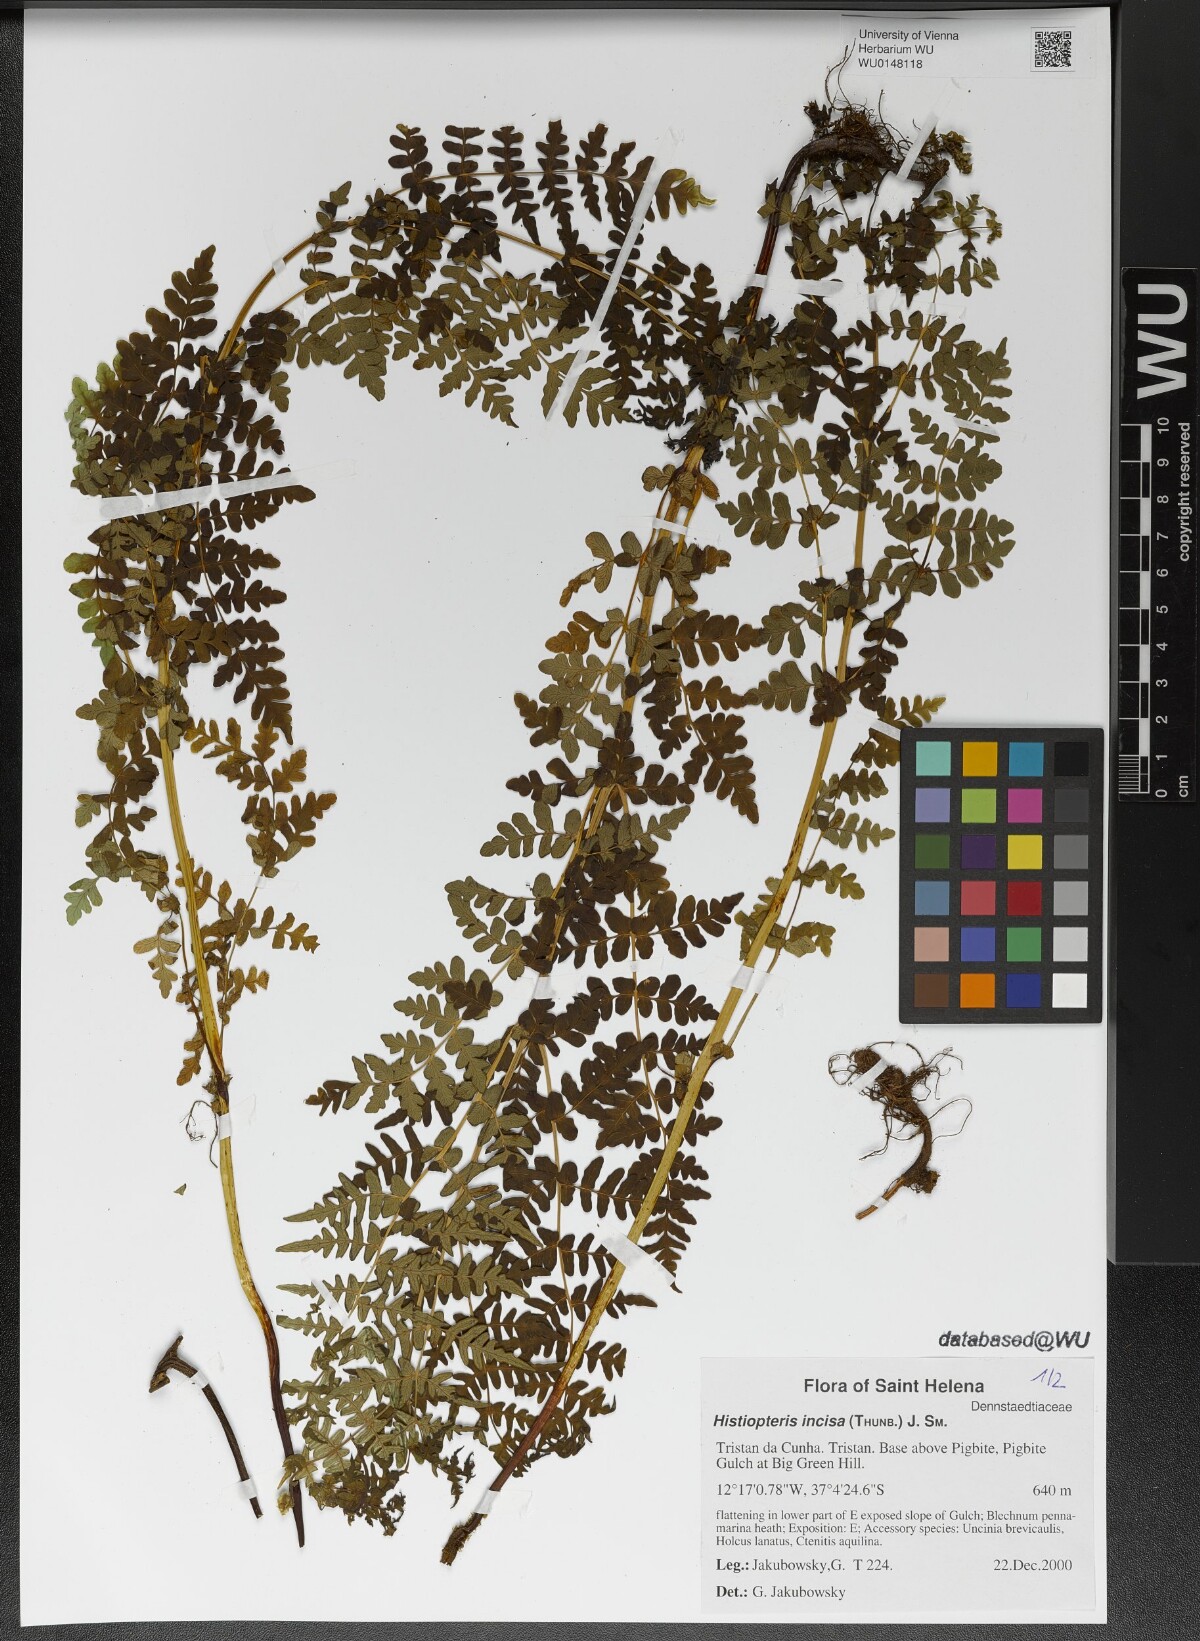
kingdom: Plantae
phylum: Tracheophyta
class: Polypodiopsida
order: Polypodiales
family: Dennstaedtiaceae
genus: Histiopteris
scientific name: Histiopteris incisa
